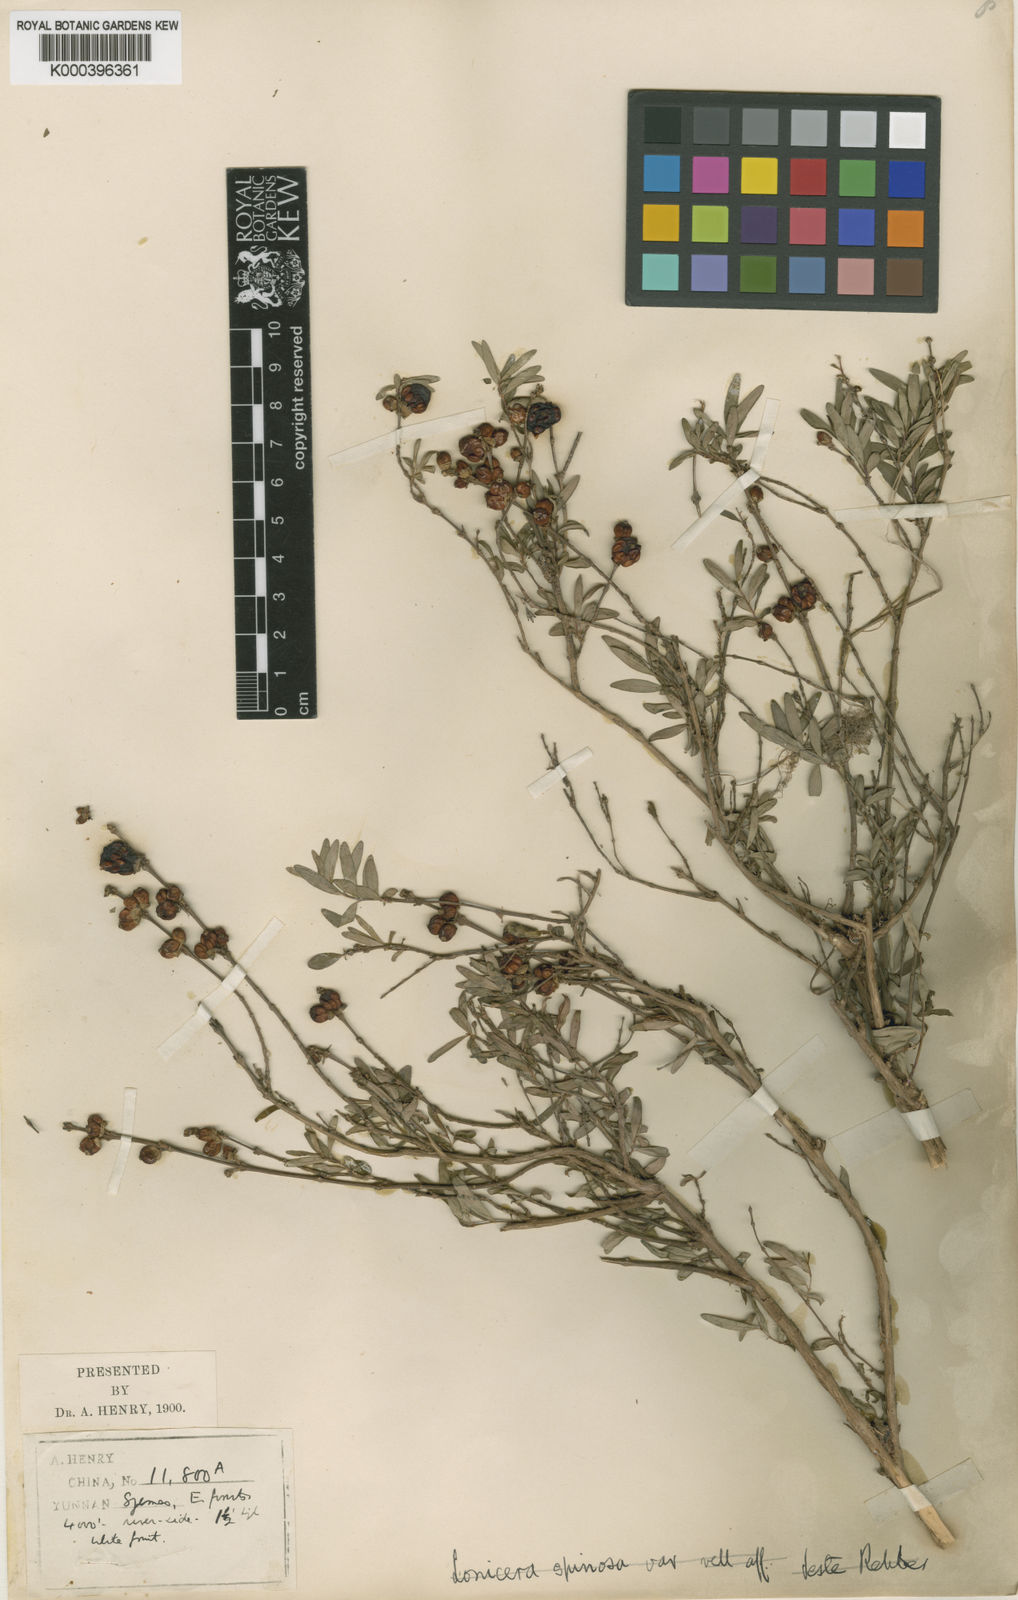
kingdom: Plantae
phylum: Tracheophyta
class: Magnoliopsida
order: Dipsacales
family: Caprifoliaceae
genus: Lonicera
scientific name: Lonicera pileata
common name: Box-leaved honeysuckle
